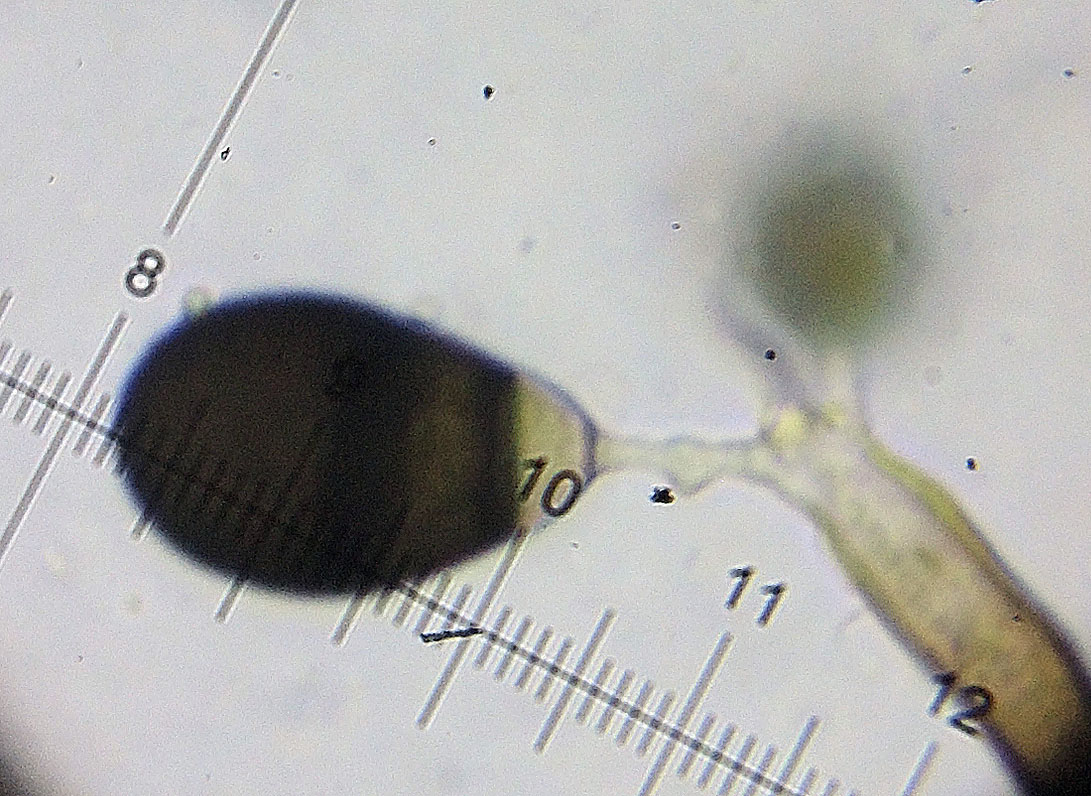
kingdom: Fungi
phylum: Ascomycota
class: Sordariomycetes
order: Trichosphaeriales
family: Trichosphaeriaceae
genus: Brachysporium
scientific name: Brachysporium britannicum
